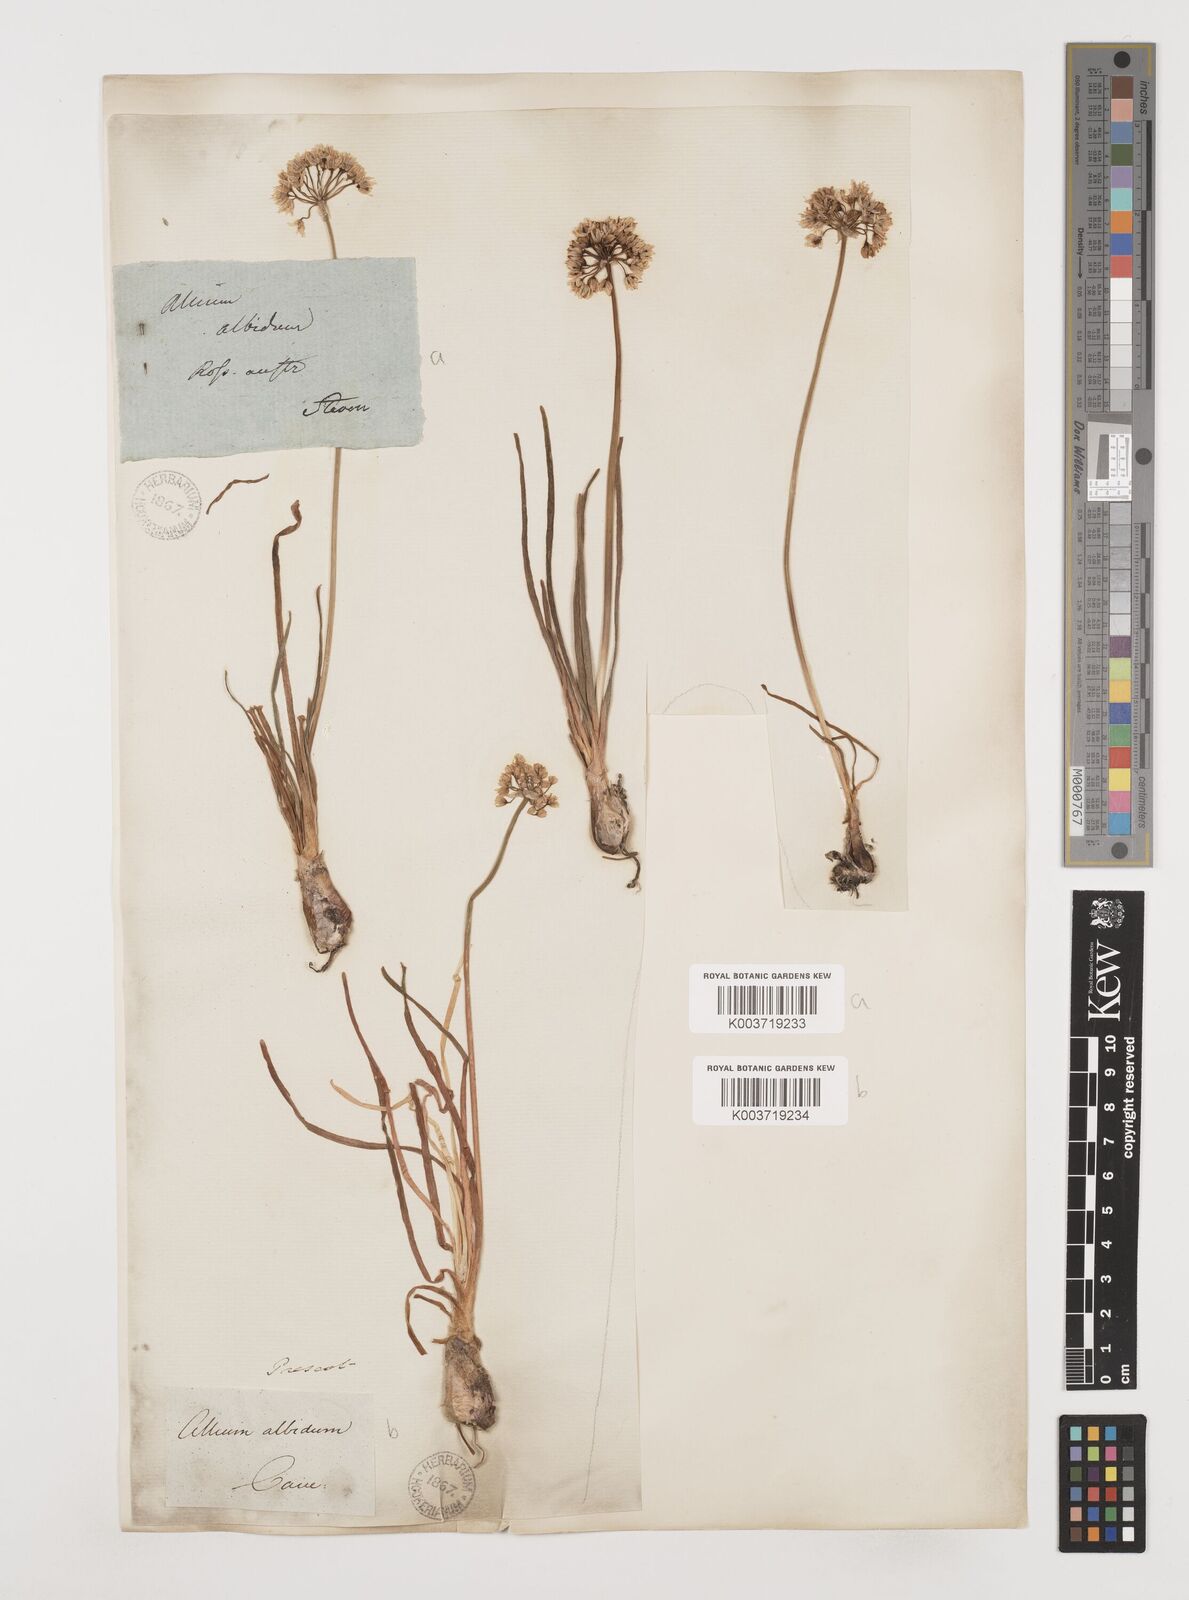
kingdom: Plantae
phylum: Tracheophyta
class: Liliopsida
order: Asparagales
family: Amaryllidaceae
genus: Allium
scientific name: Allium denudatum
